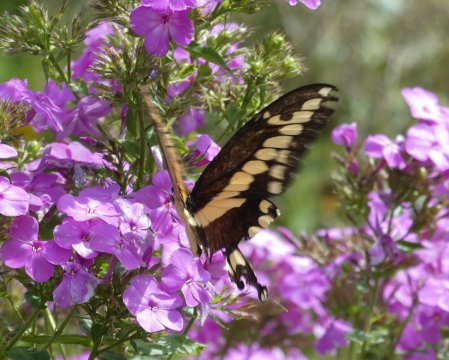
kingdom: Animalia
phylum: Arthropoda
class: Insecta
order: Lepidoptera
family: Papilionidae
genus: Papilio
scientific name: Papilio cresphontes
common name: Eastern Giant Swallowtail
